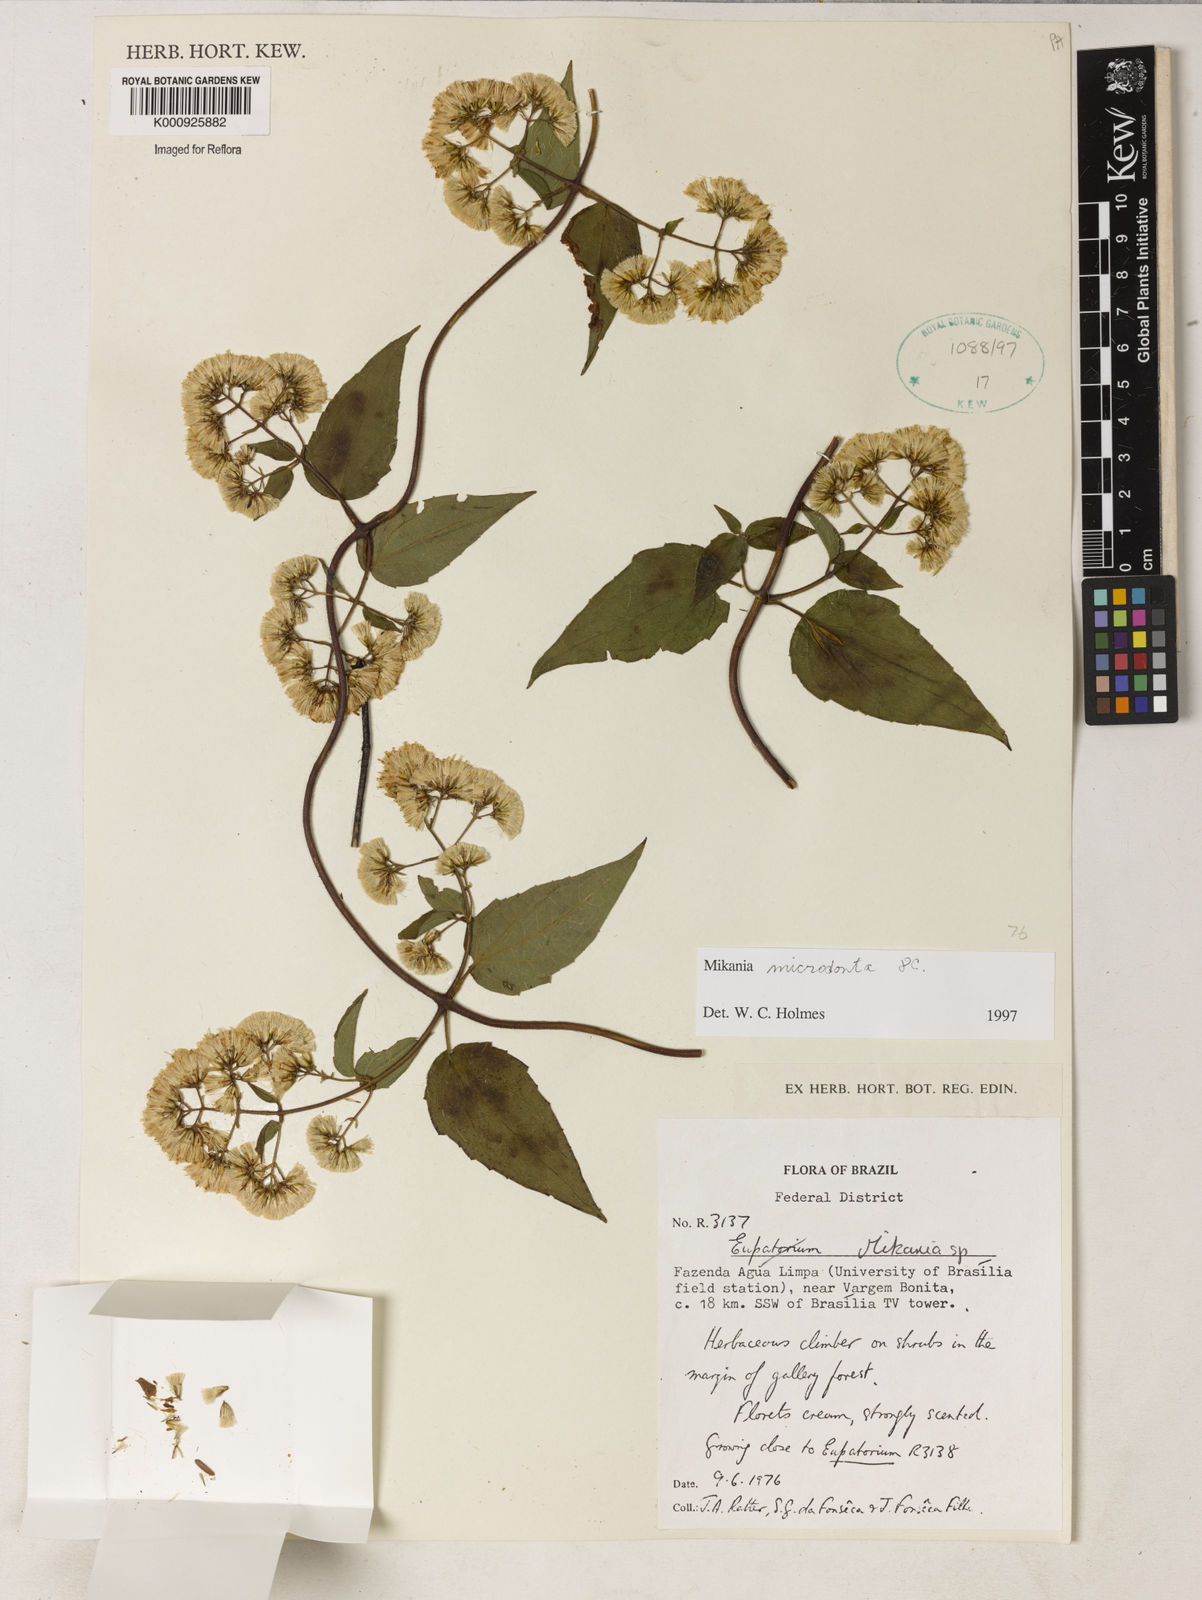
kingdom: Plantae
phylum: Tracheophyta
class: Magnoliopsida
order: Asterales
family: Asteraceae
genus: Mikania
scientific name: Mikania microdonta
